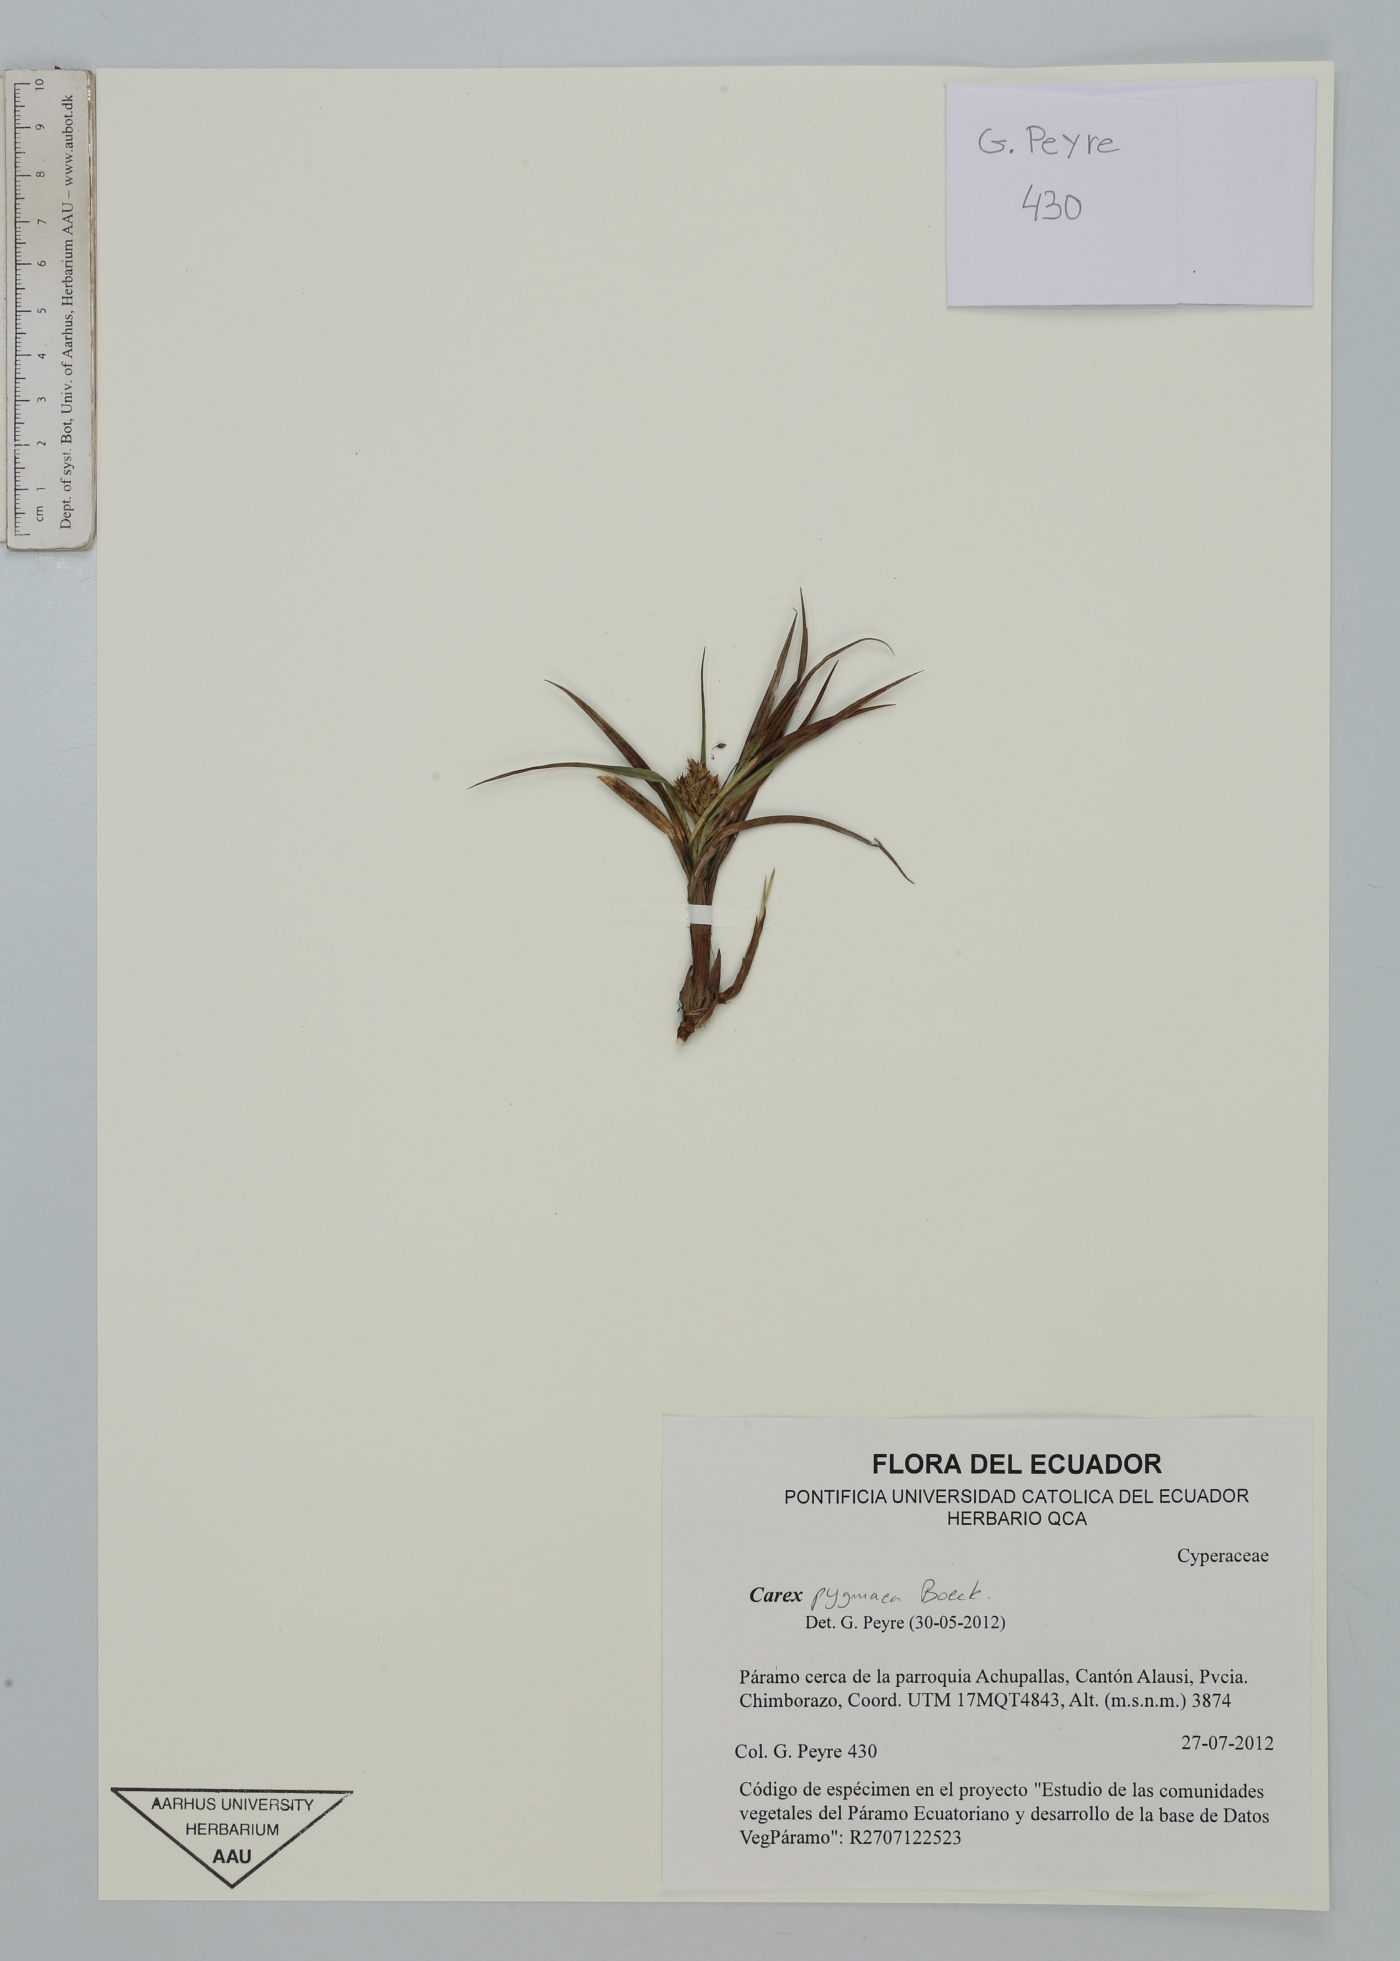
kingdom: Plantae
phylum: Tracheophyta
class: Liliopsida
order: Poales
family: Cyperaceae
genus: Carex
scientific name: Carex pygmaea
